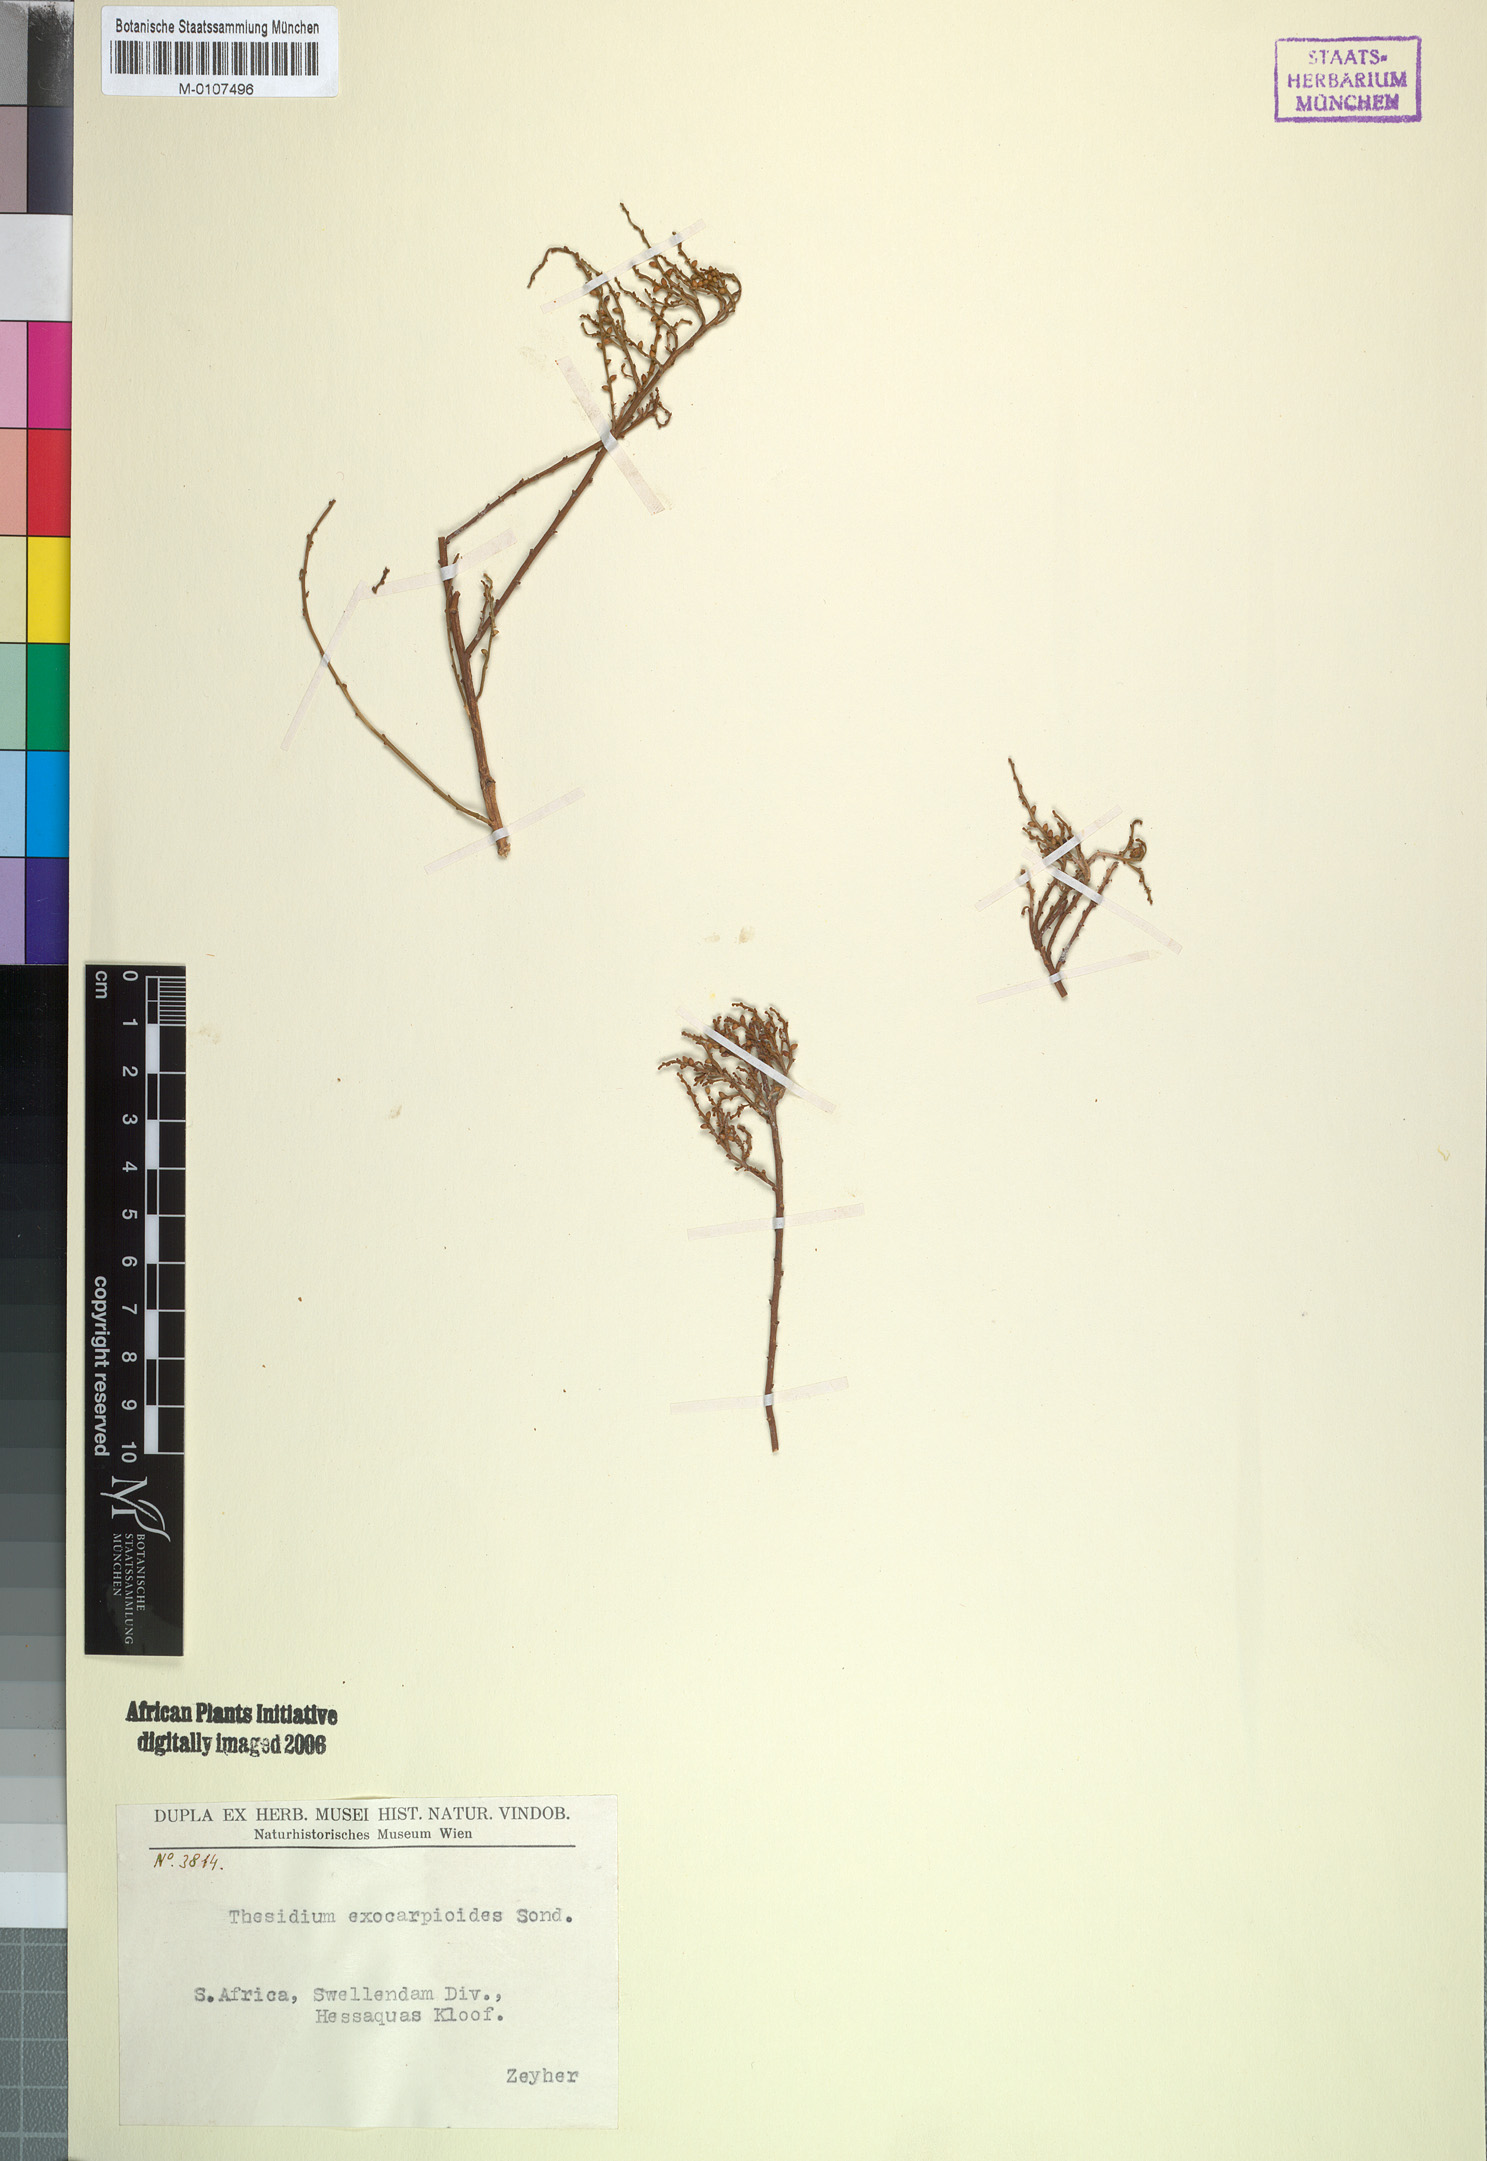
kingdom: Plantae
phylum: Tracheophyta
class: Magnoliopsida
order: Santalales
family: Thesiaceae
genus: Thesium
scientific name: Thesium confusum
